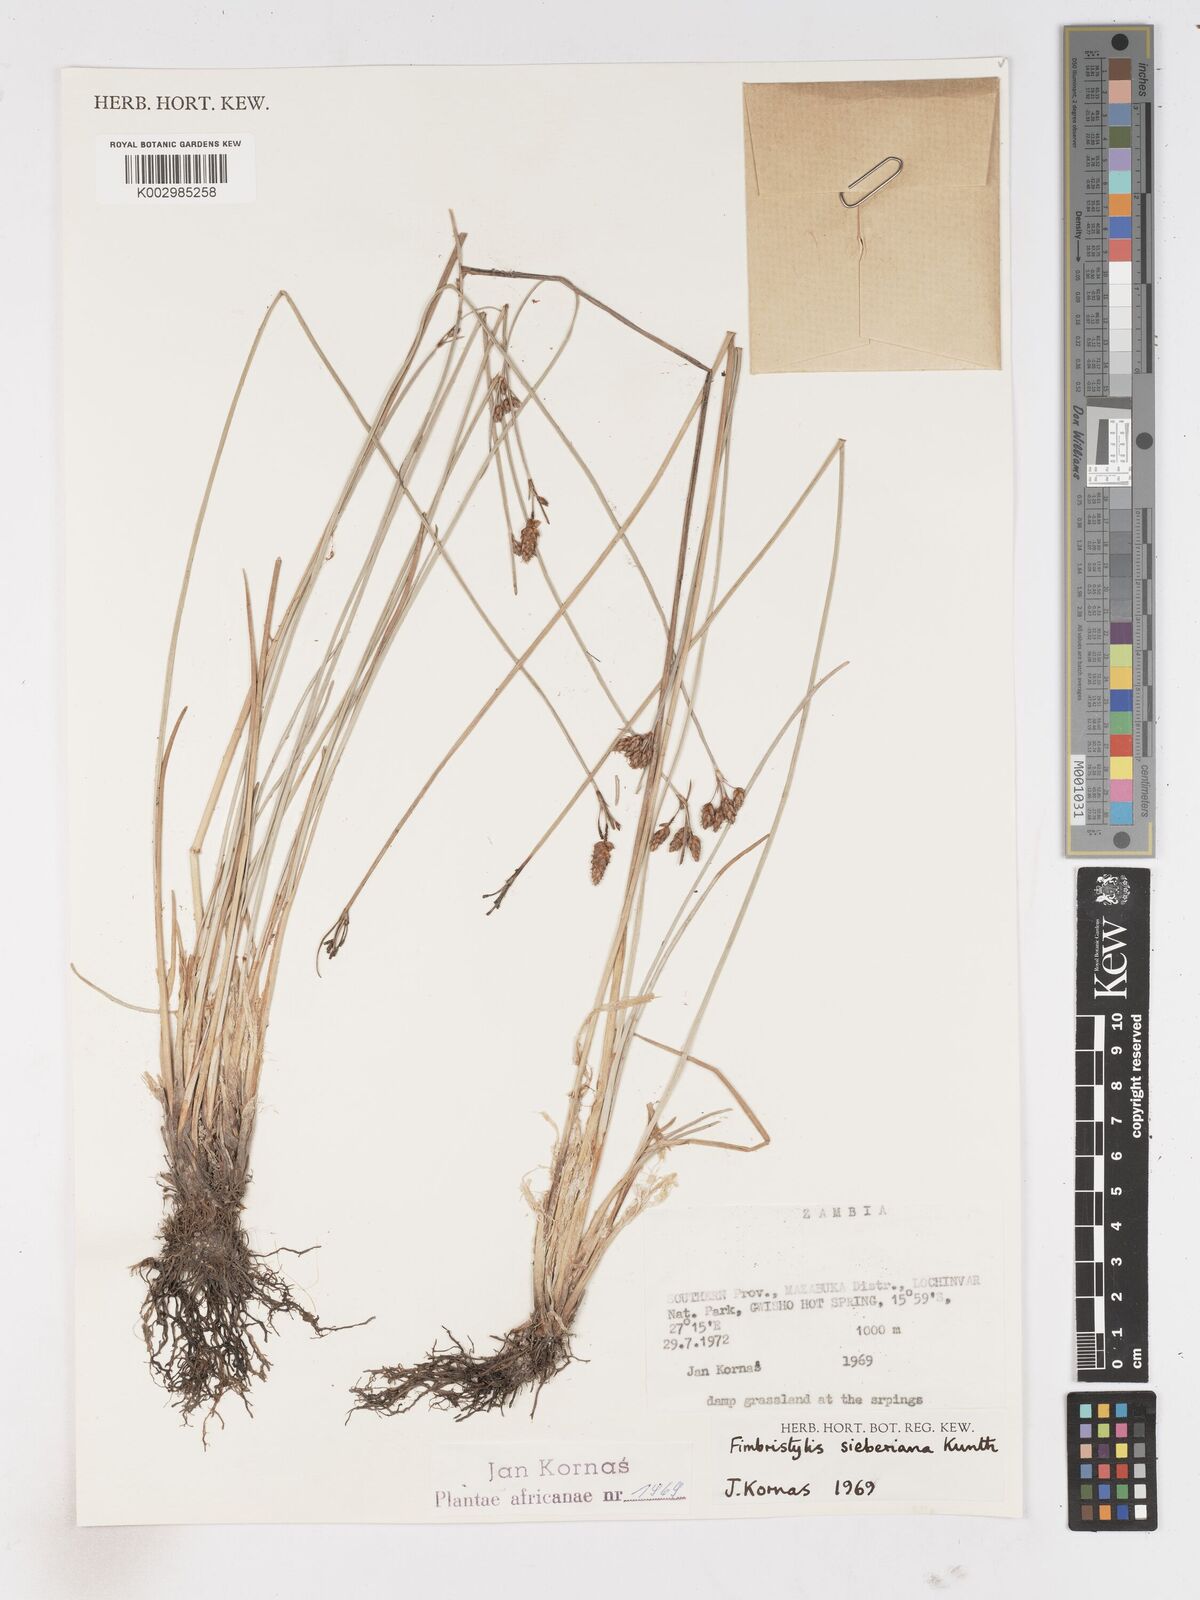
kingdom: Plantae
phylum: Tracheophyta
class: Liliopsida
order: Poales
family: Cyperaceae
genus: Fimbristylis
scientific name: Fimbristylis ferruginea
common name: West indian fimbry
